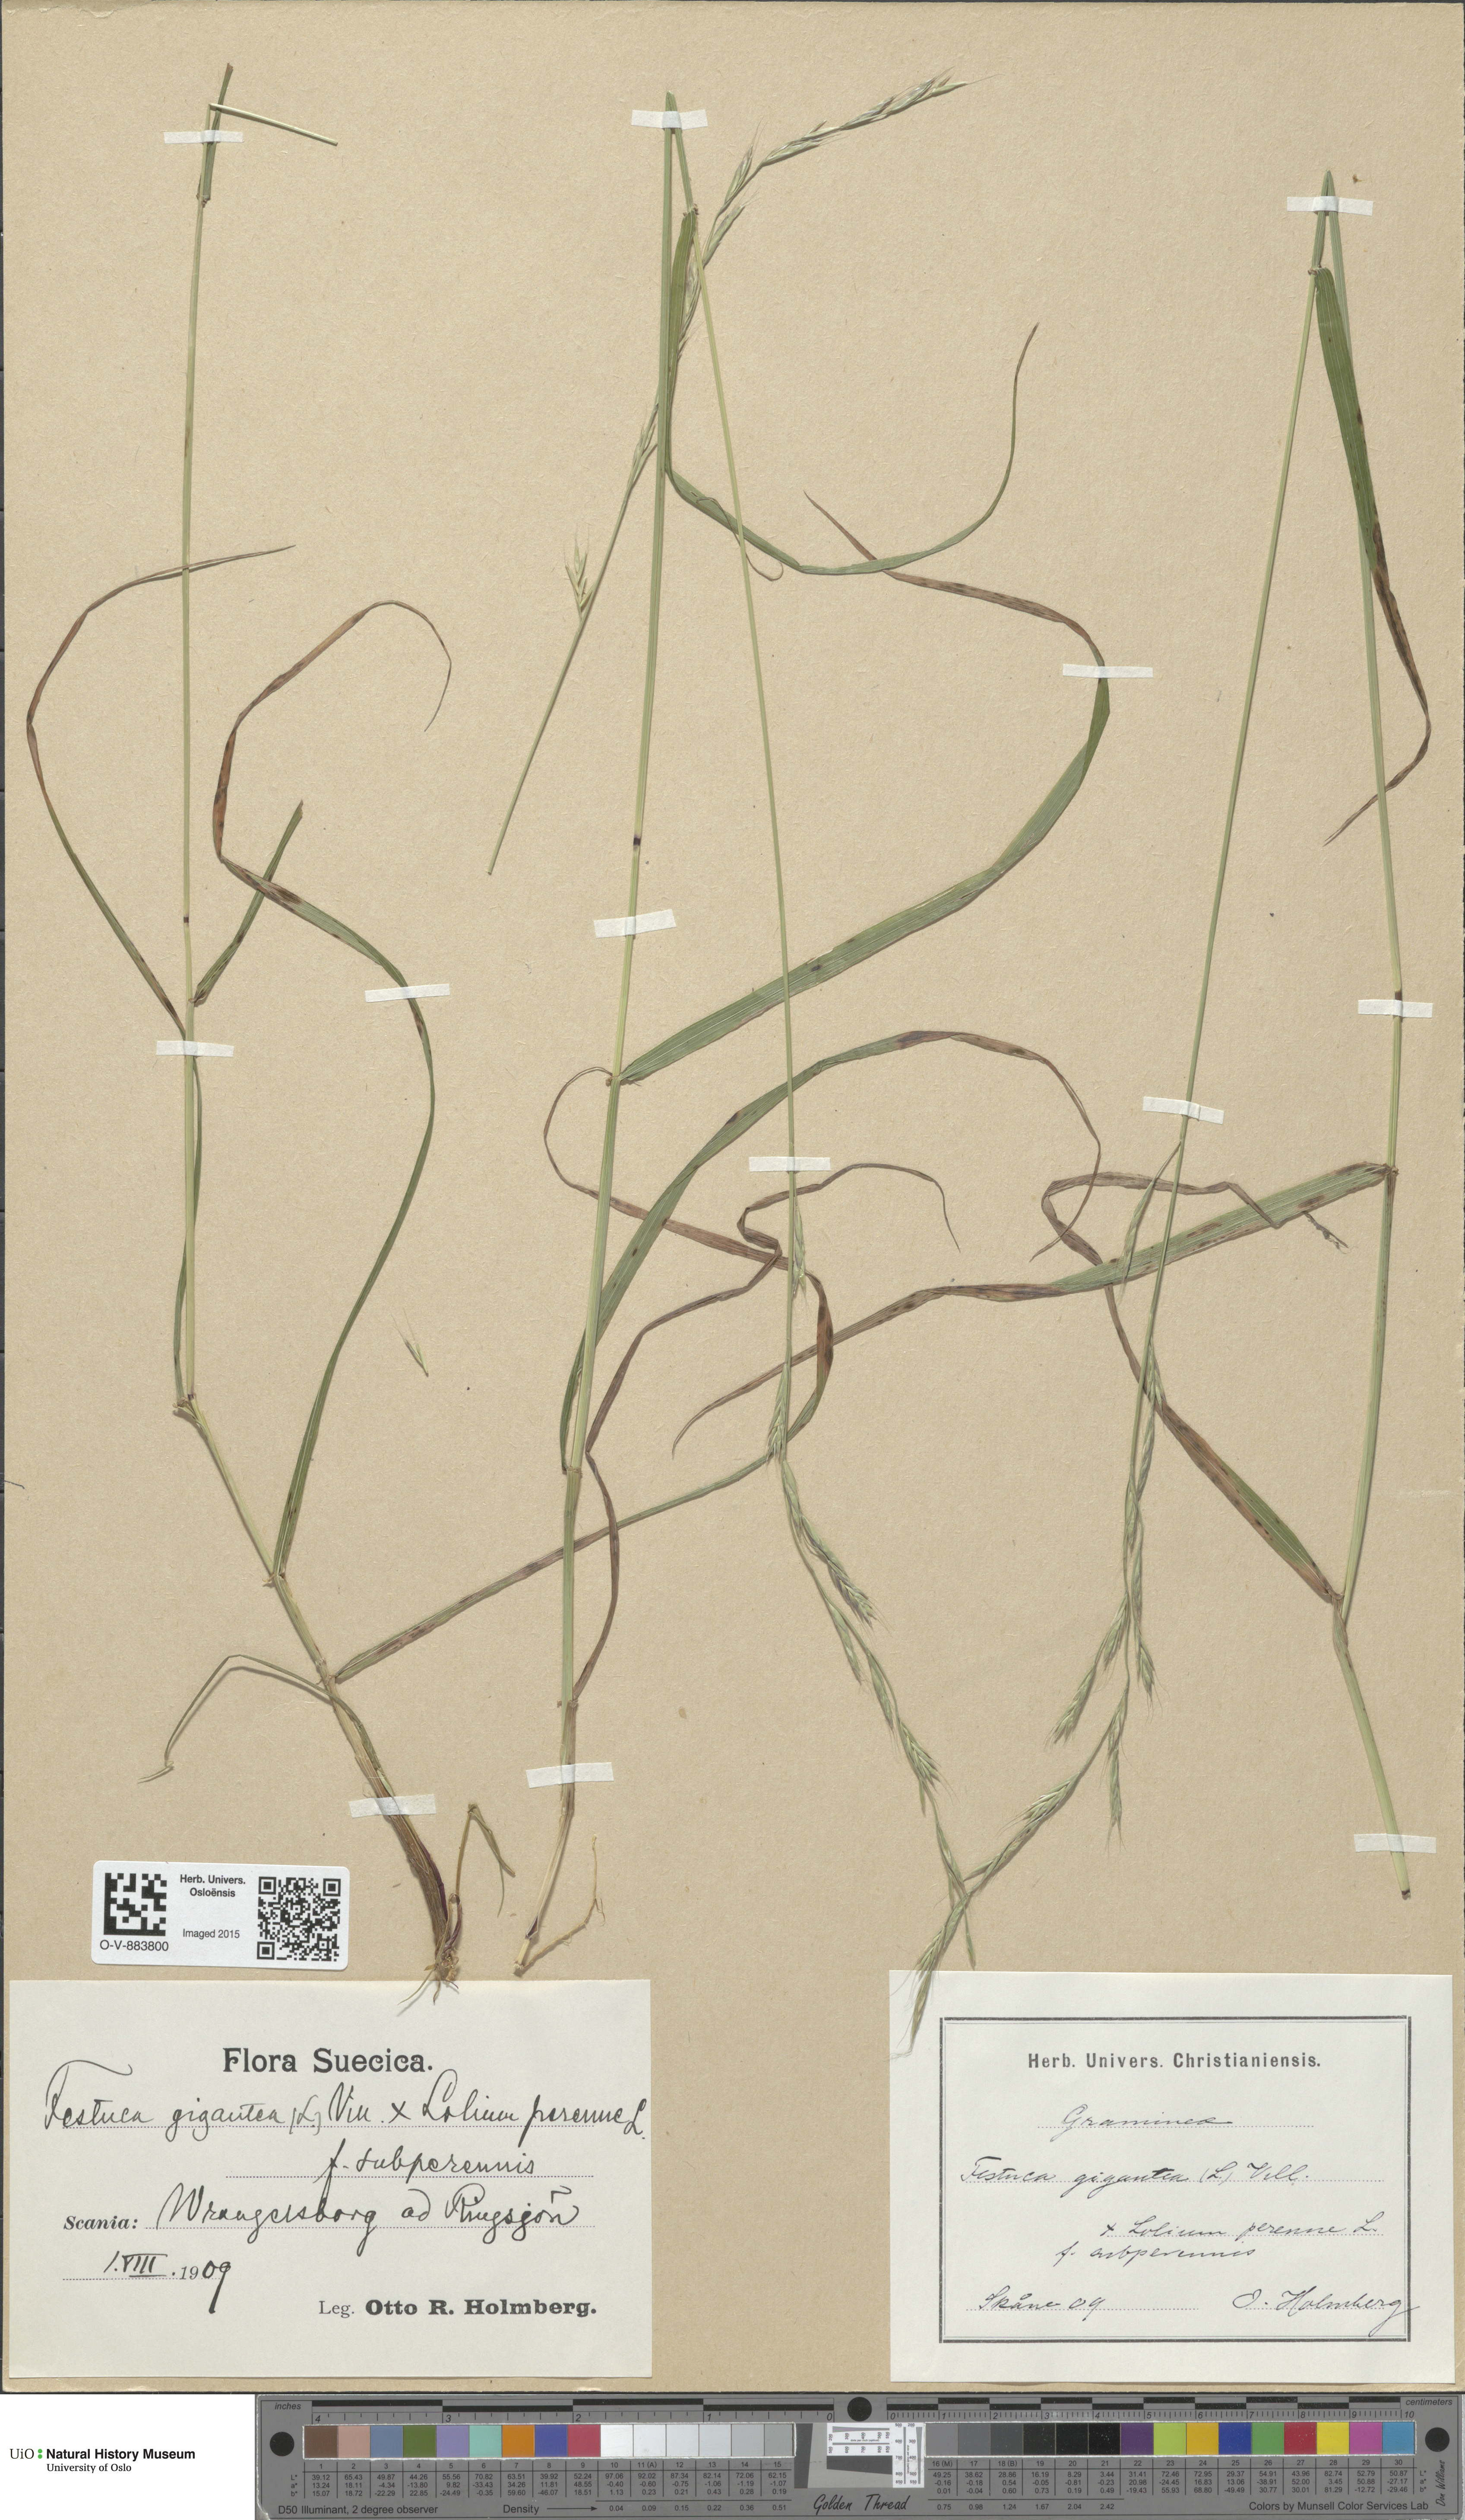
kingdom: Plantae
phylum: Tracheophyta
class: Liliopsida
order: Poales
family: Poaceae
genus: Lolium
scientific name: Lolium
